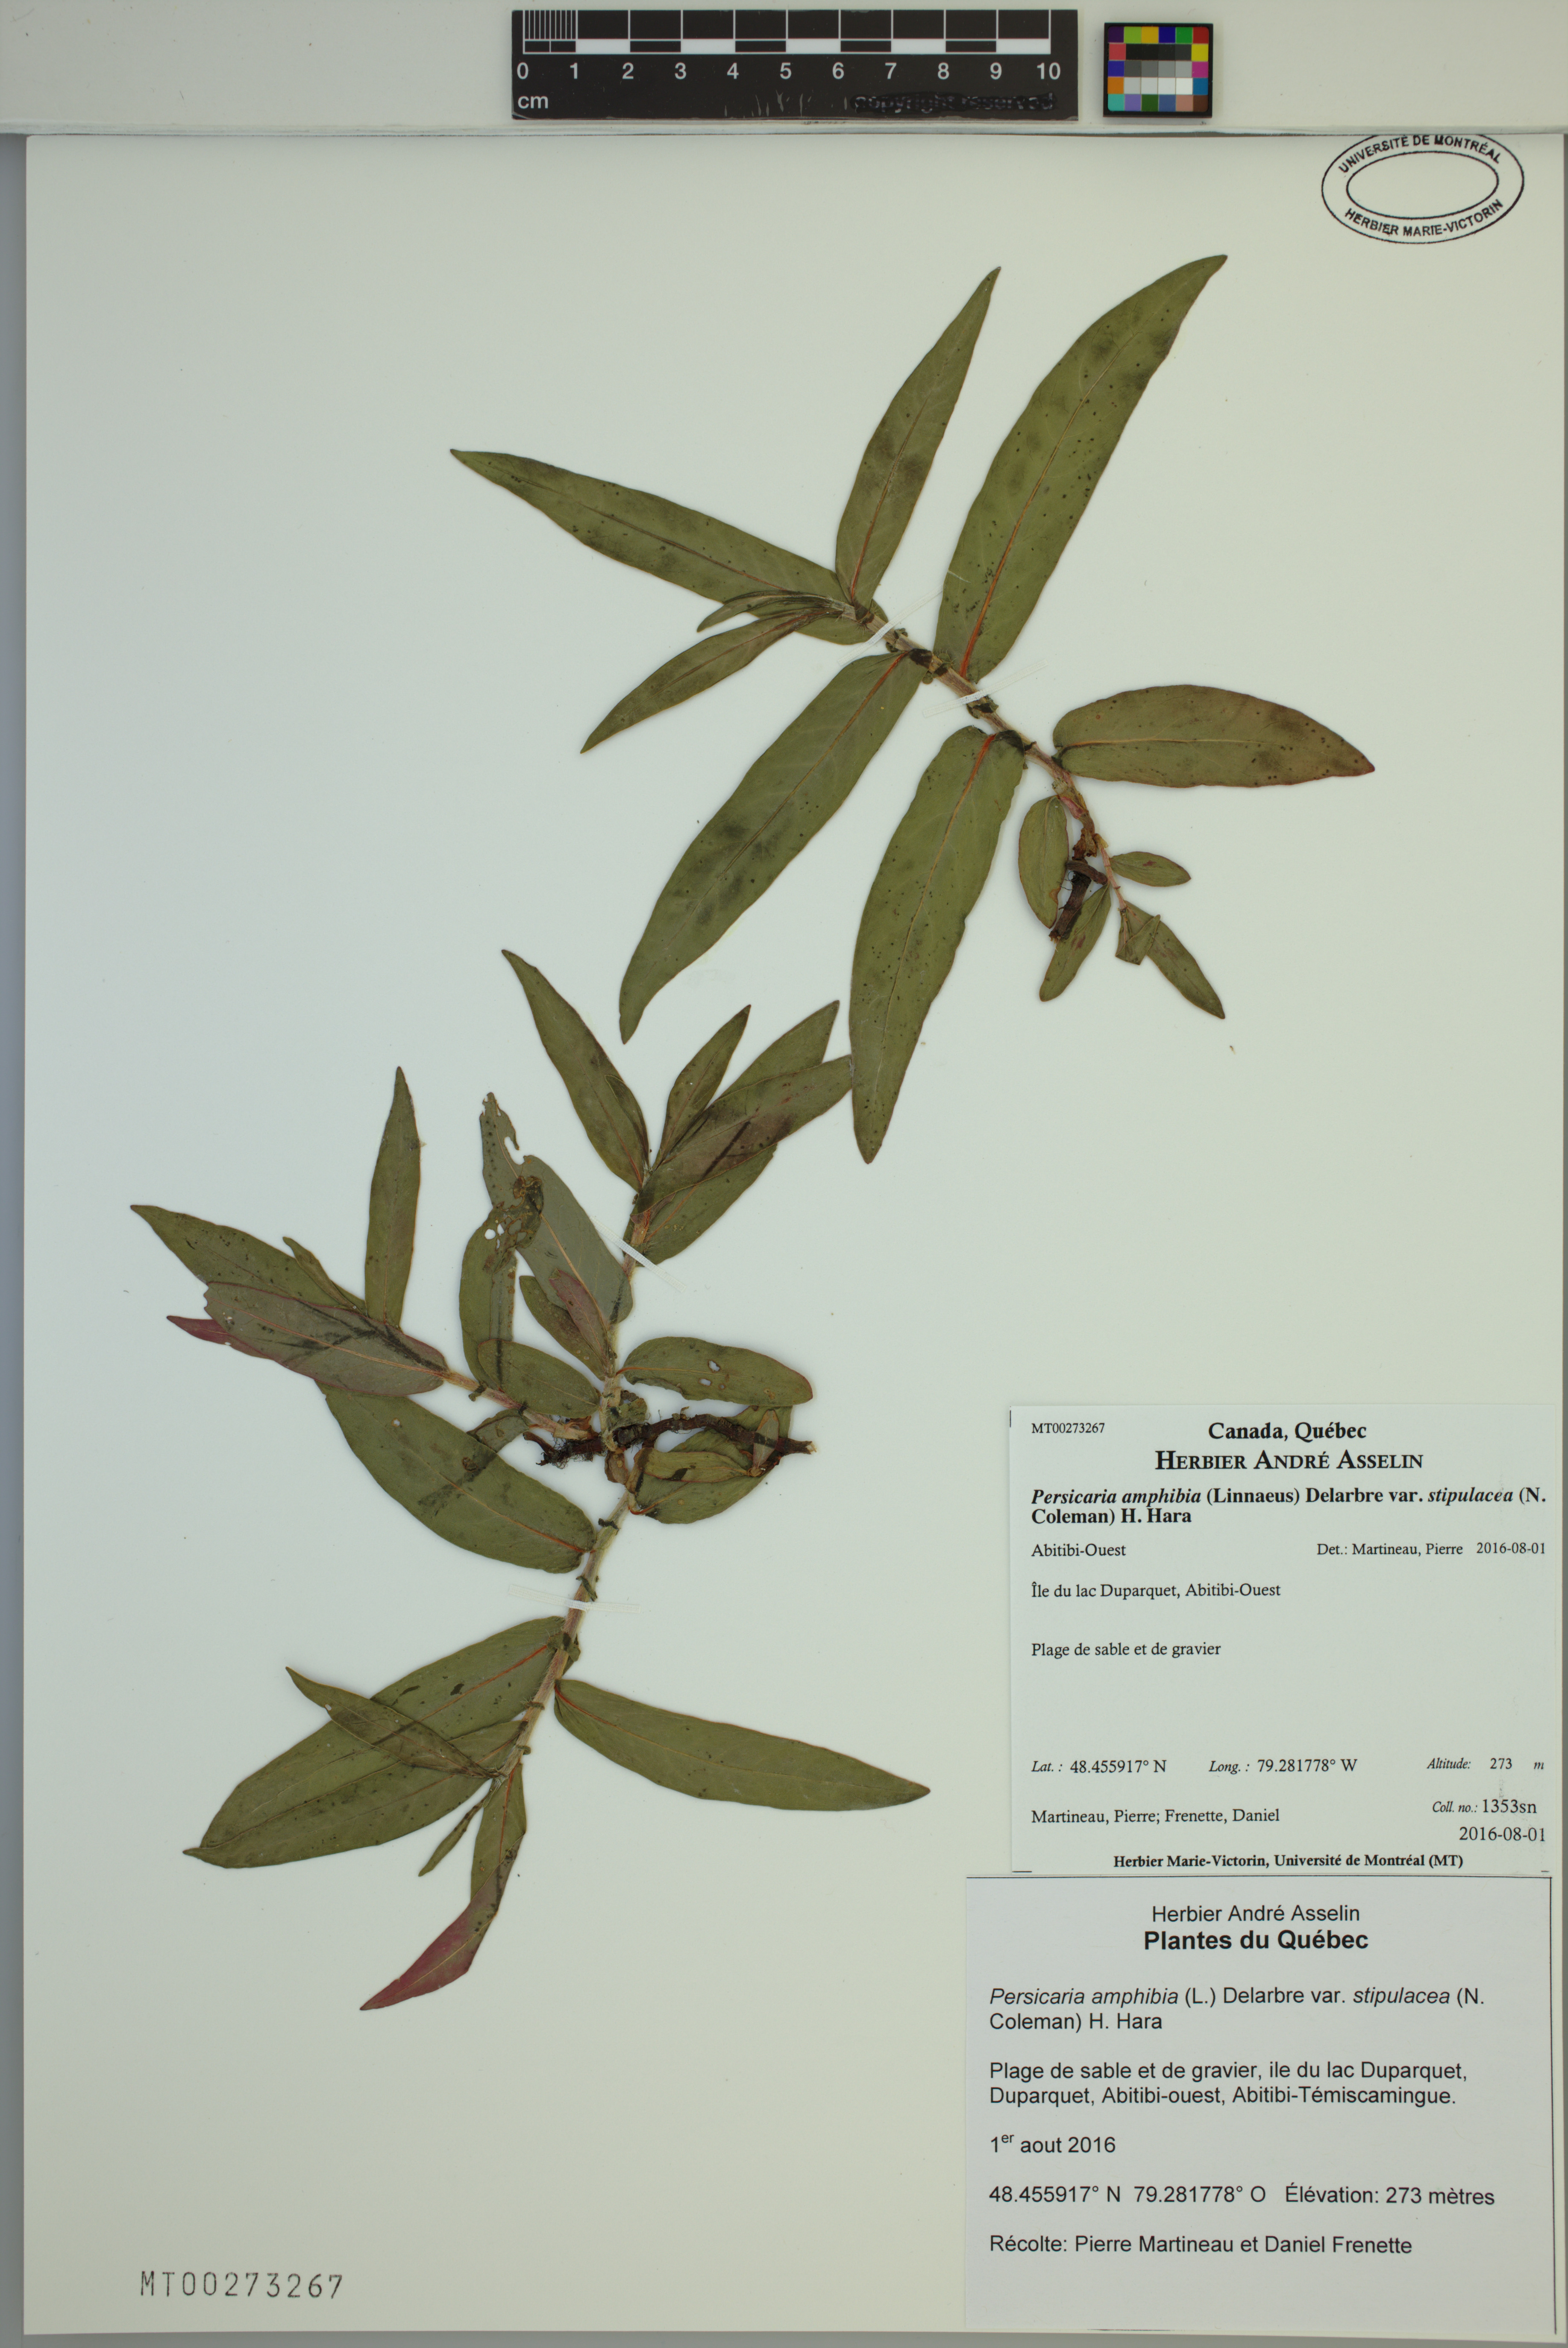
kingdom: Plantae
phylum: Tracheophyta
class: Magnoliopsida
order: Caryophyllales
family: Polygonaceae
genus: Persicaria
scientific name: Persicaria amphibia
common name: Amphibious bistort
